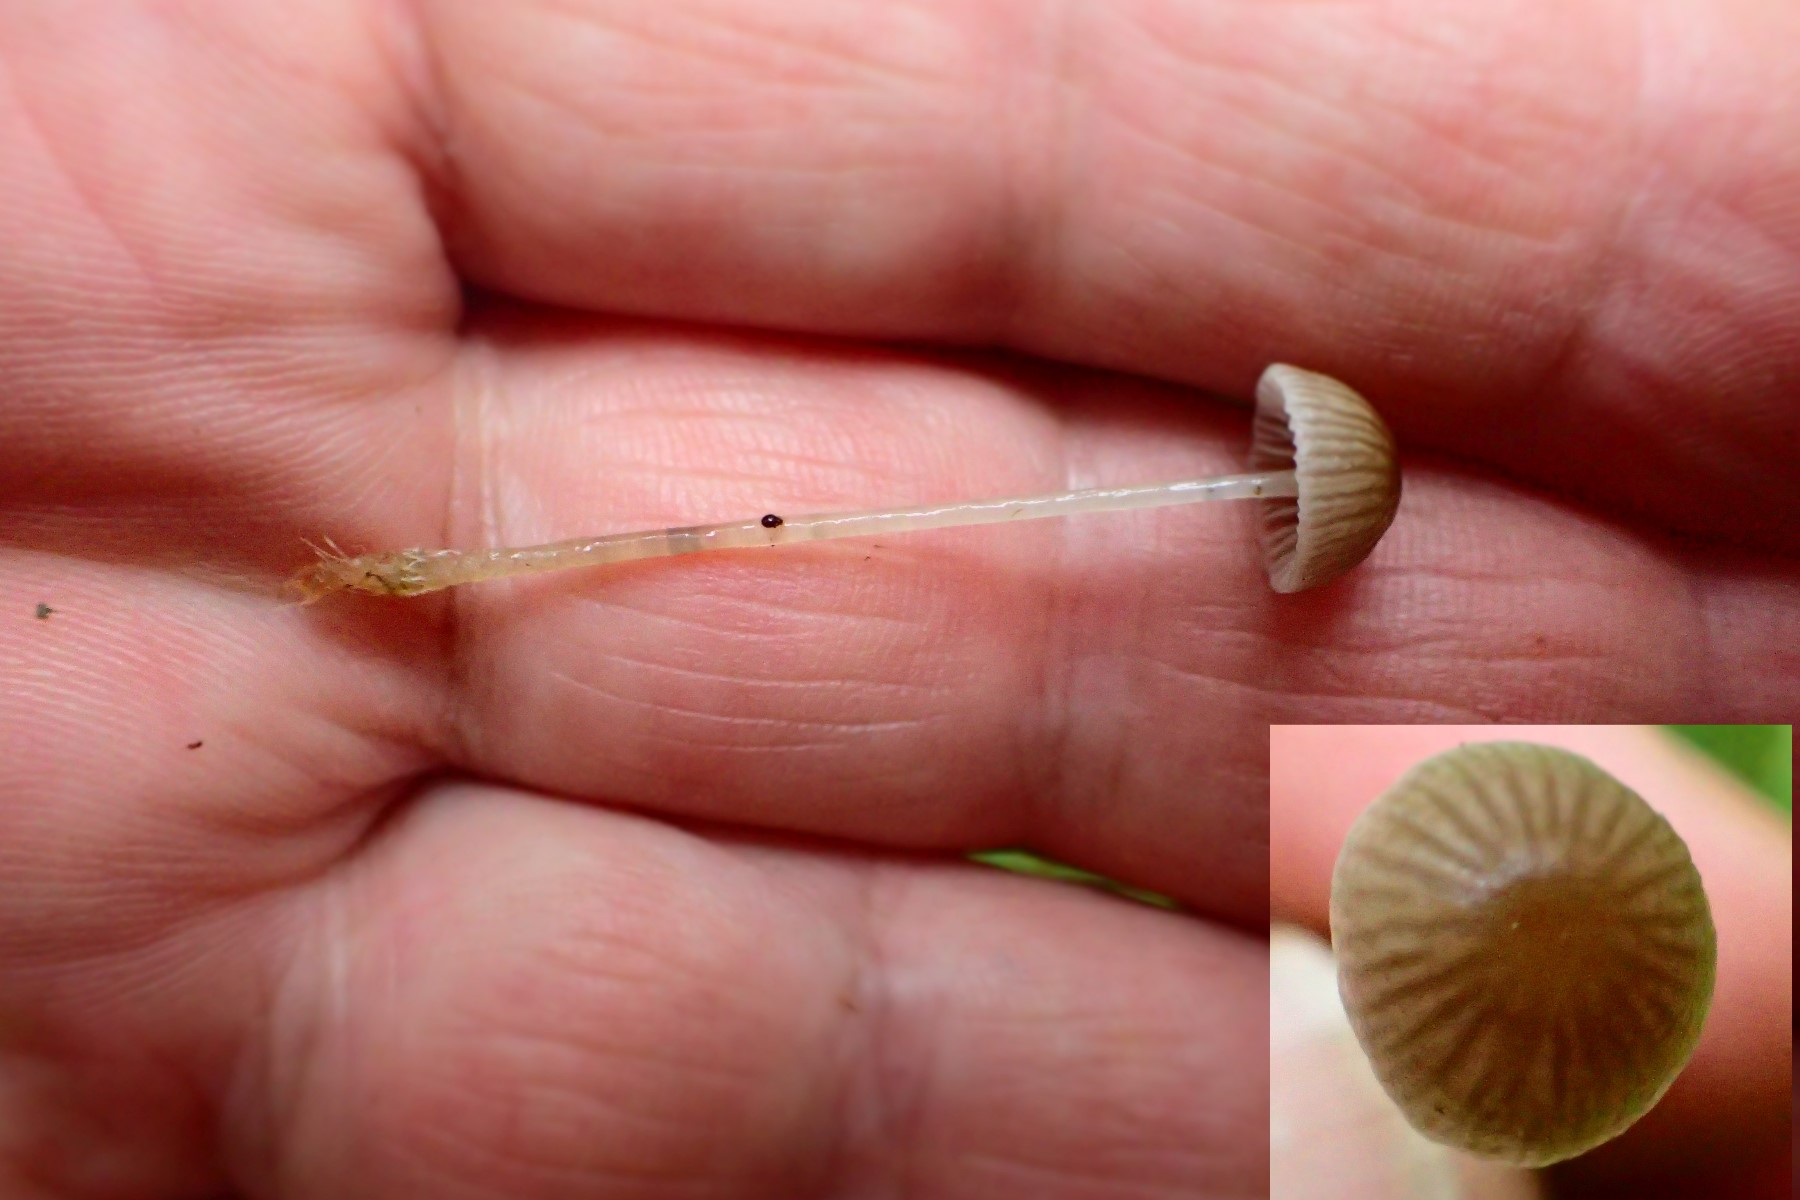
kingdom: Fungi
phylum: Basidiomycota
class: Agaricomycetes
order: Agaricales
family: Mycenaceae
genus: Mycena
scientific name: Mycena vulgaris
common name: klæbrig huesvamp
